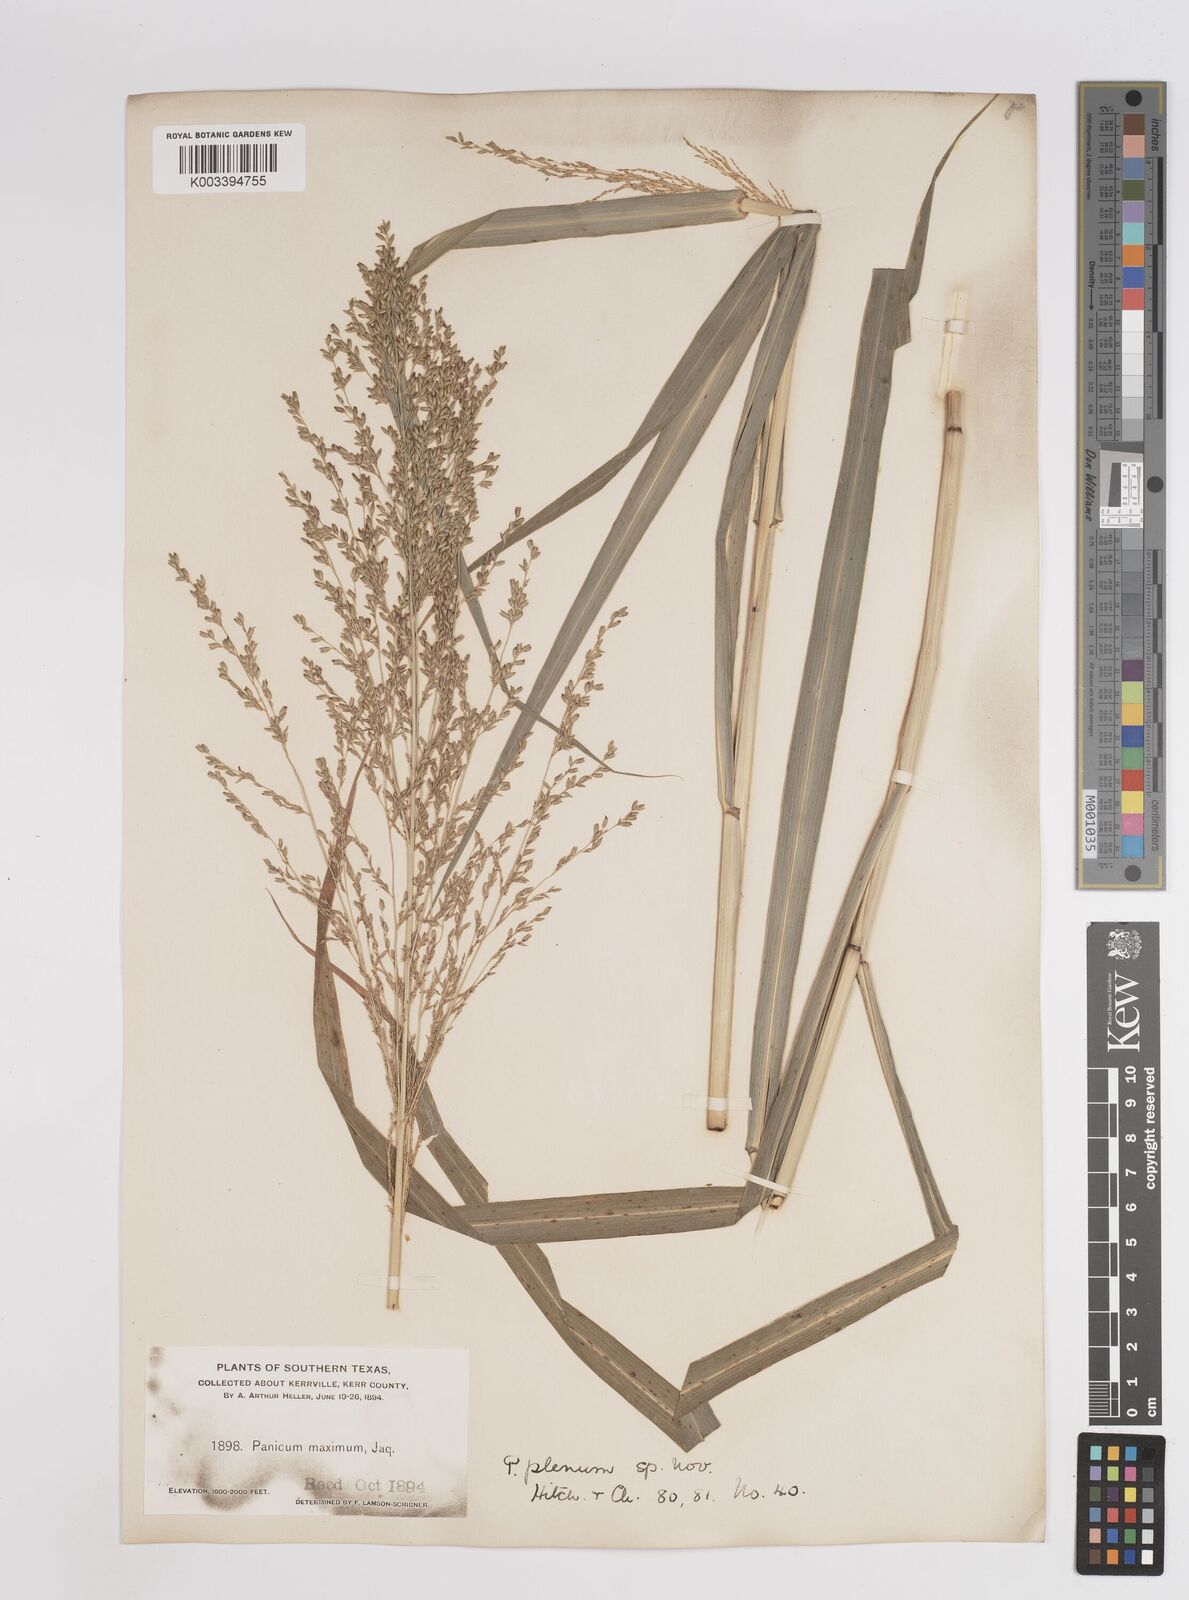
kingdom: Plantae
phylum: Tracheophyta
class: Liliopsida
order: Poales
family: Poaceae
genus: Panicum
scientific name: Panicum plenum
